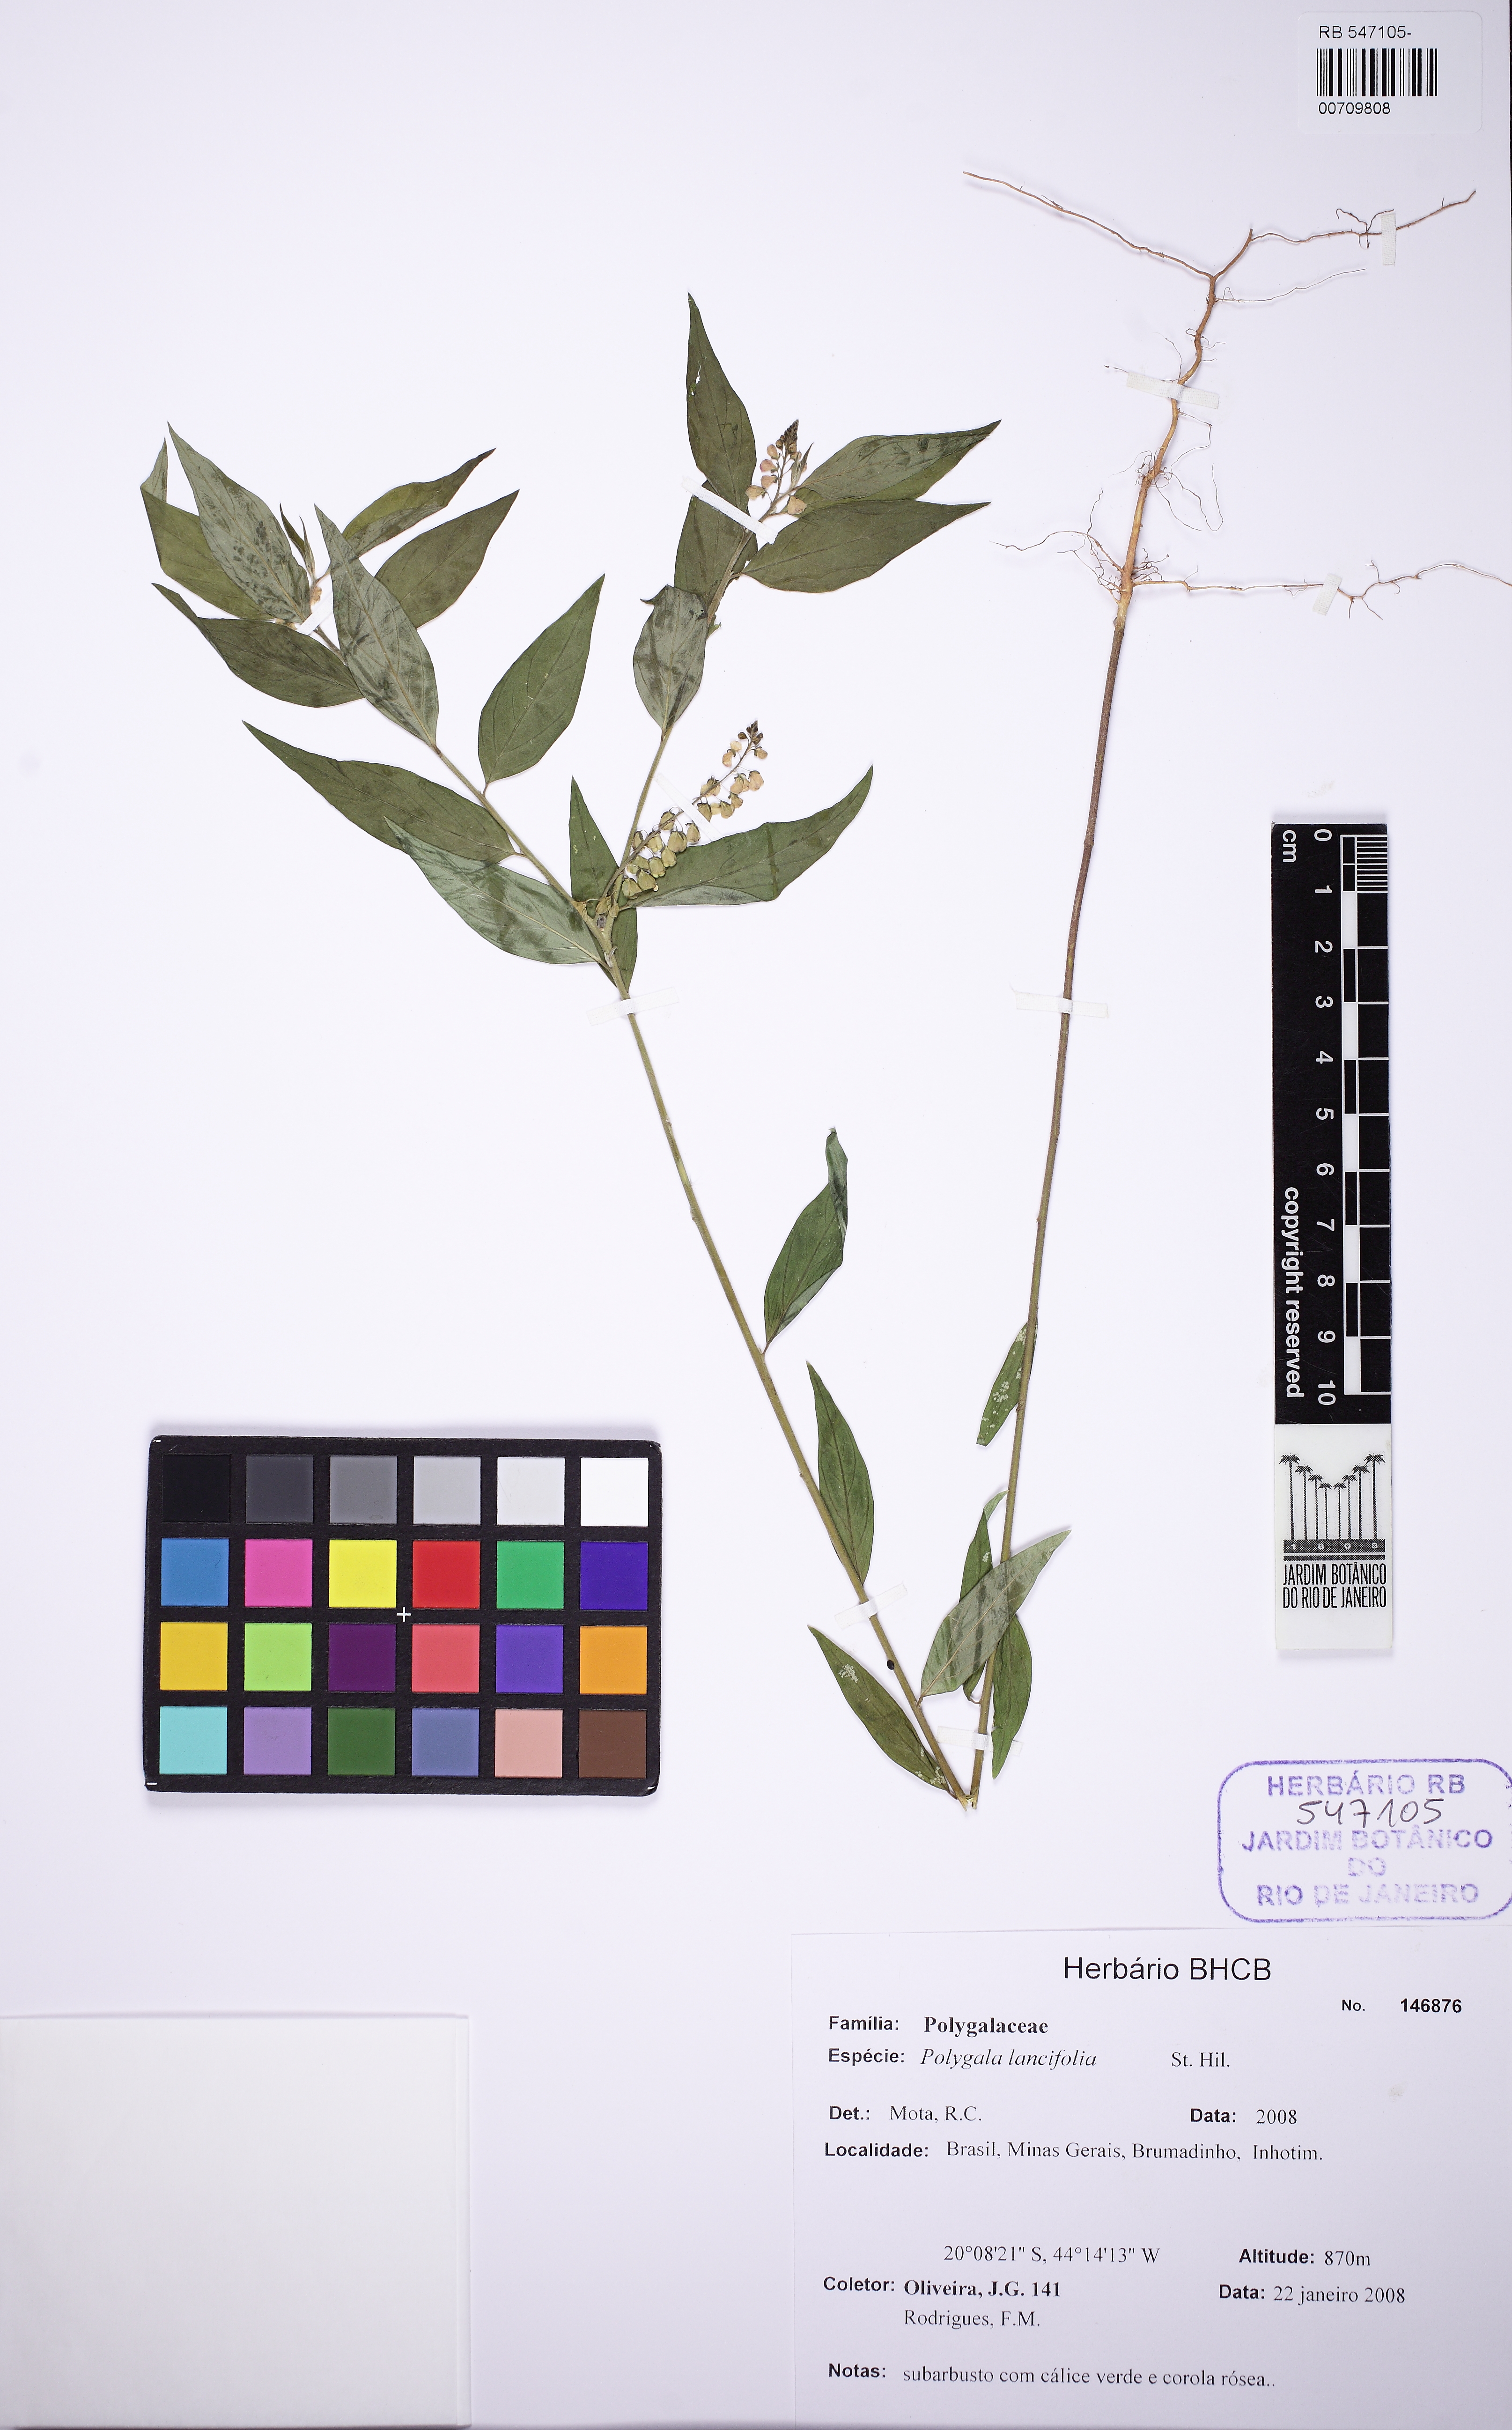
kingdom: Plantae
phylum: Tracheophyta
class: Magnoliopsida
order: Fabales
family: Polygalaceae
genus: Polygala
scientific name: Polygala lancifolia
